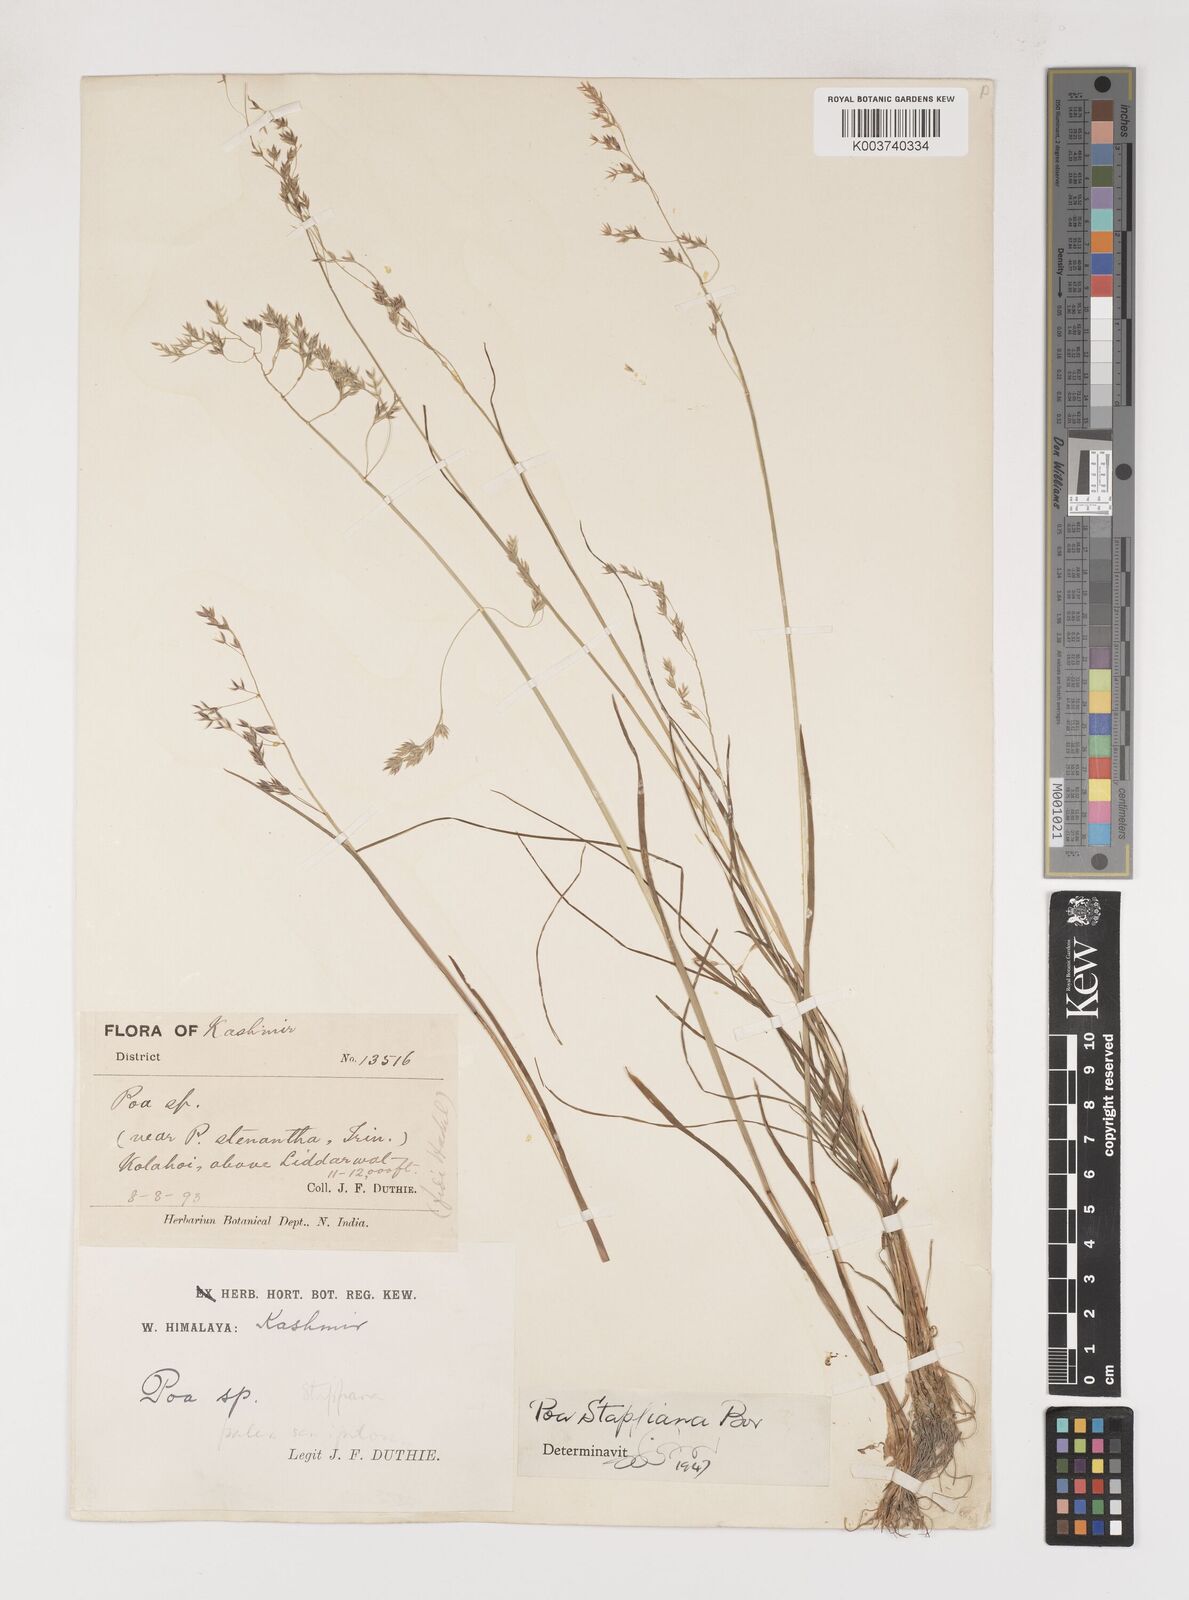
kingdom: Plantae
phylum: Tracheophyta
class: Liliopsida
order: Poales
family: Poaceae
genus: Poa
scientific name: Poa stapfiana
